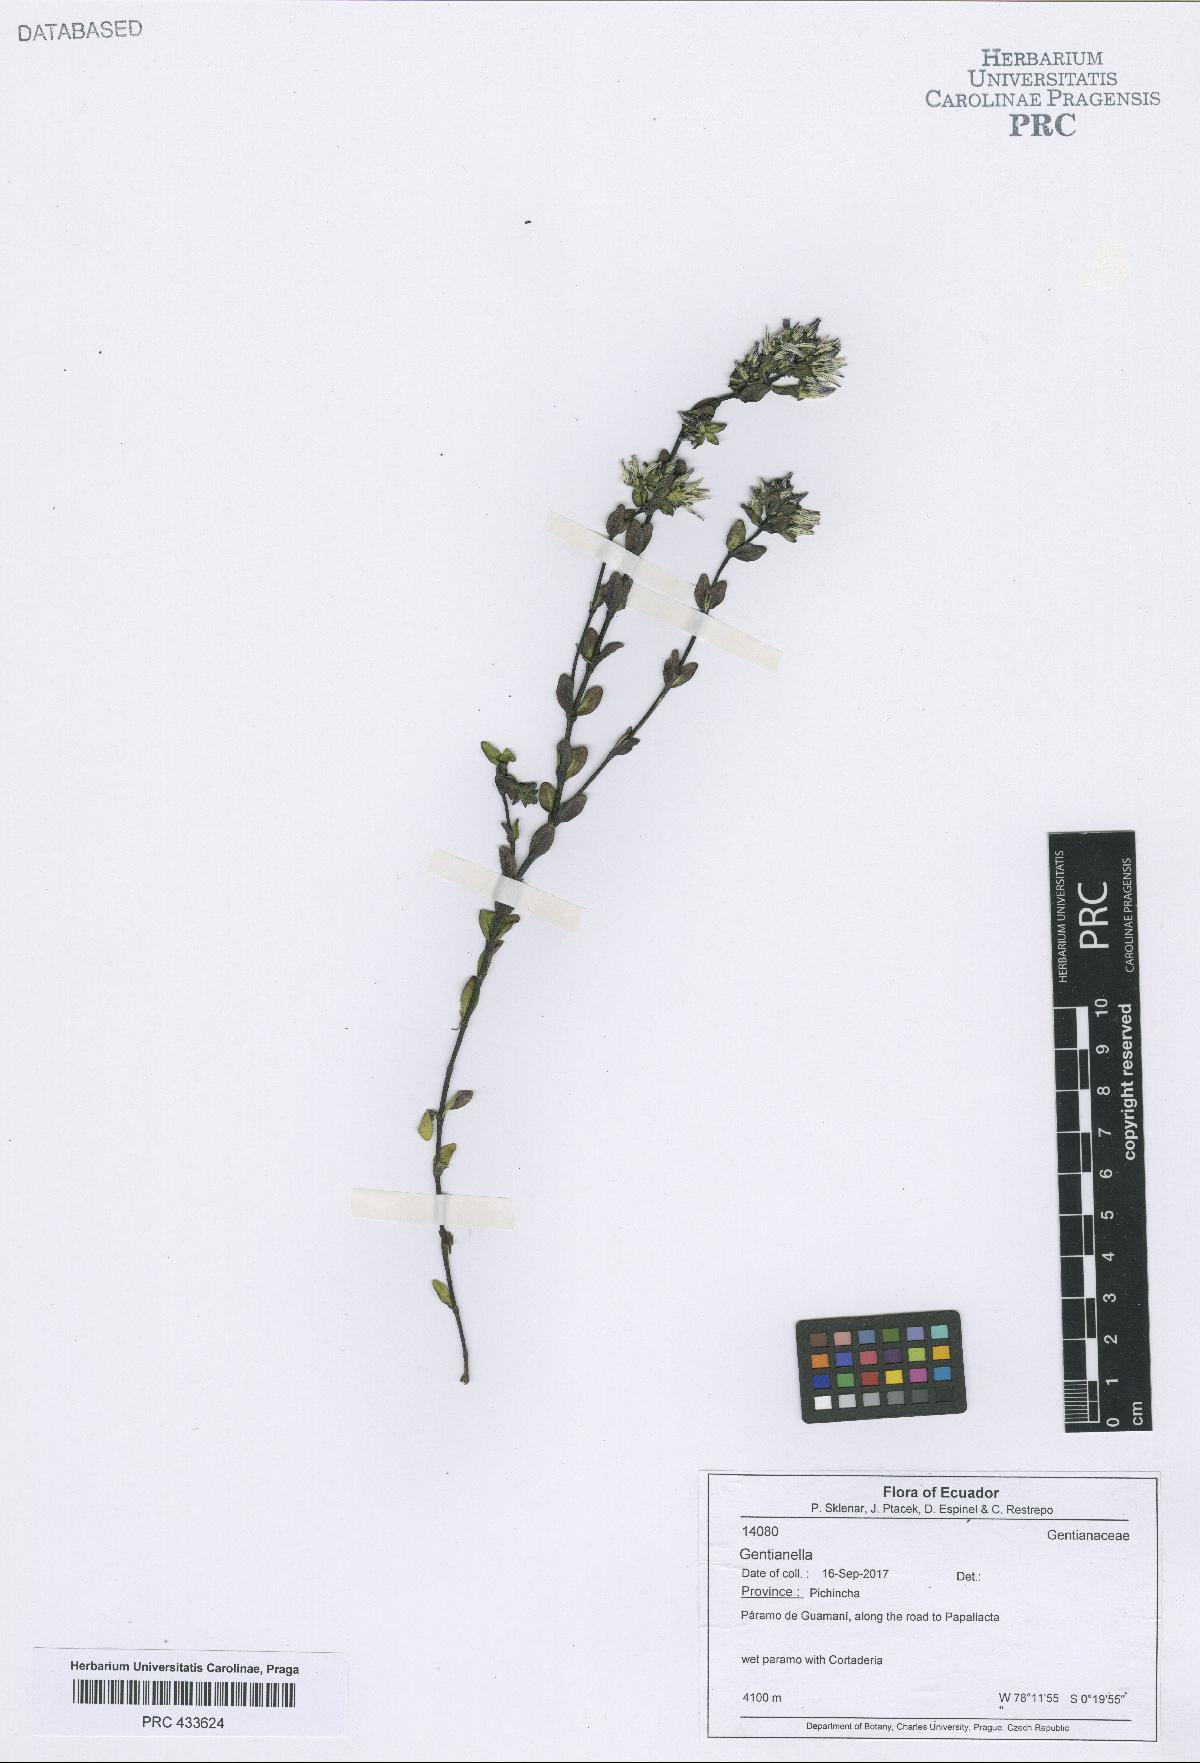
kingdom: Plantae
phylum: Tracheophyta
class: Magnoliopsida
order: Gentianales
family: Gentianaceae
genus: Gentianella
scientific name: Gentianella
